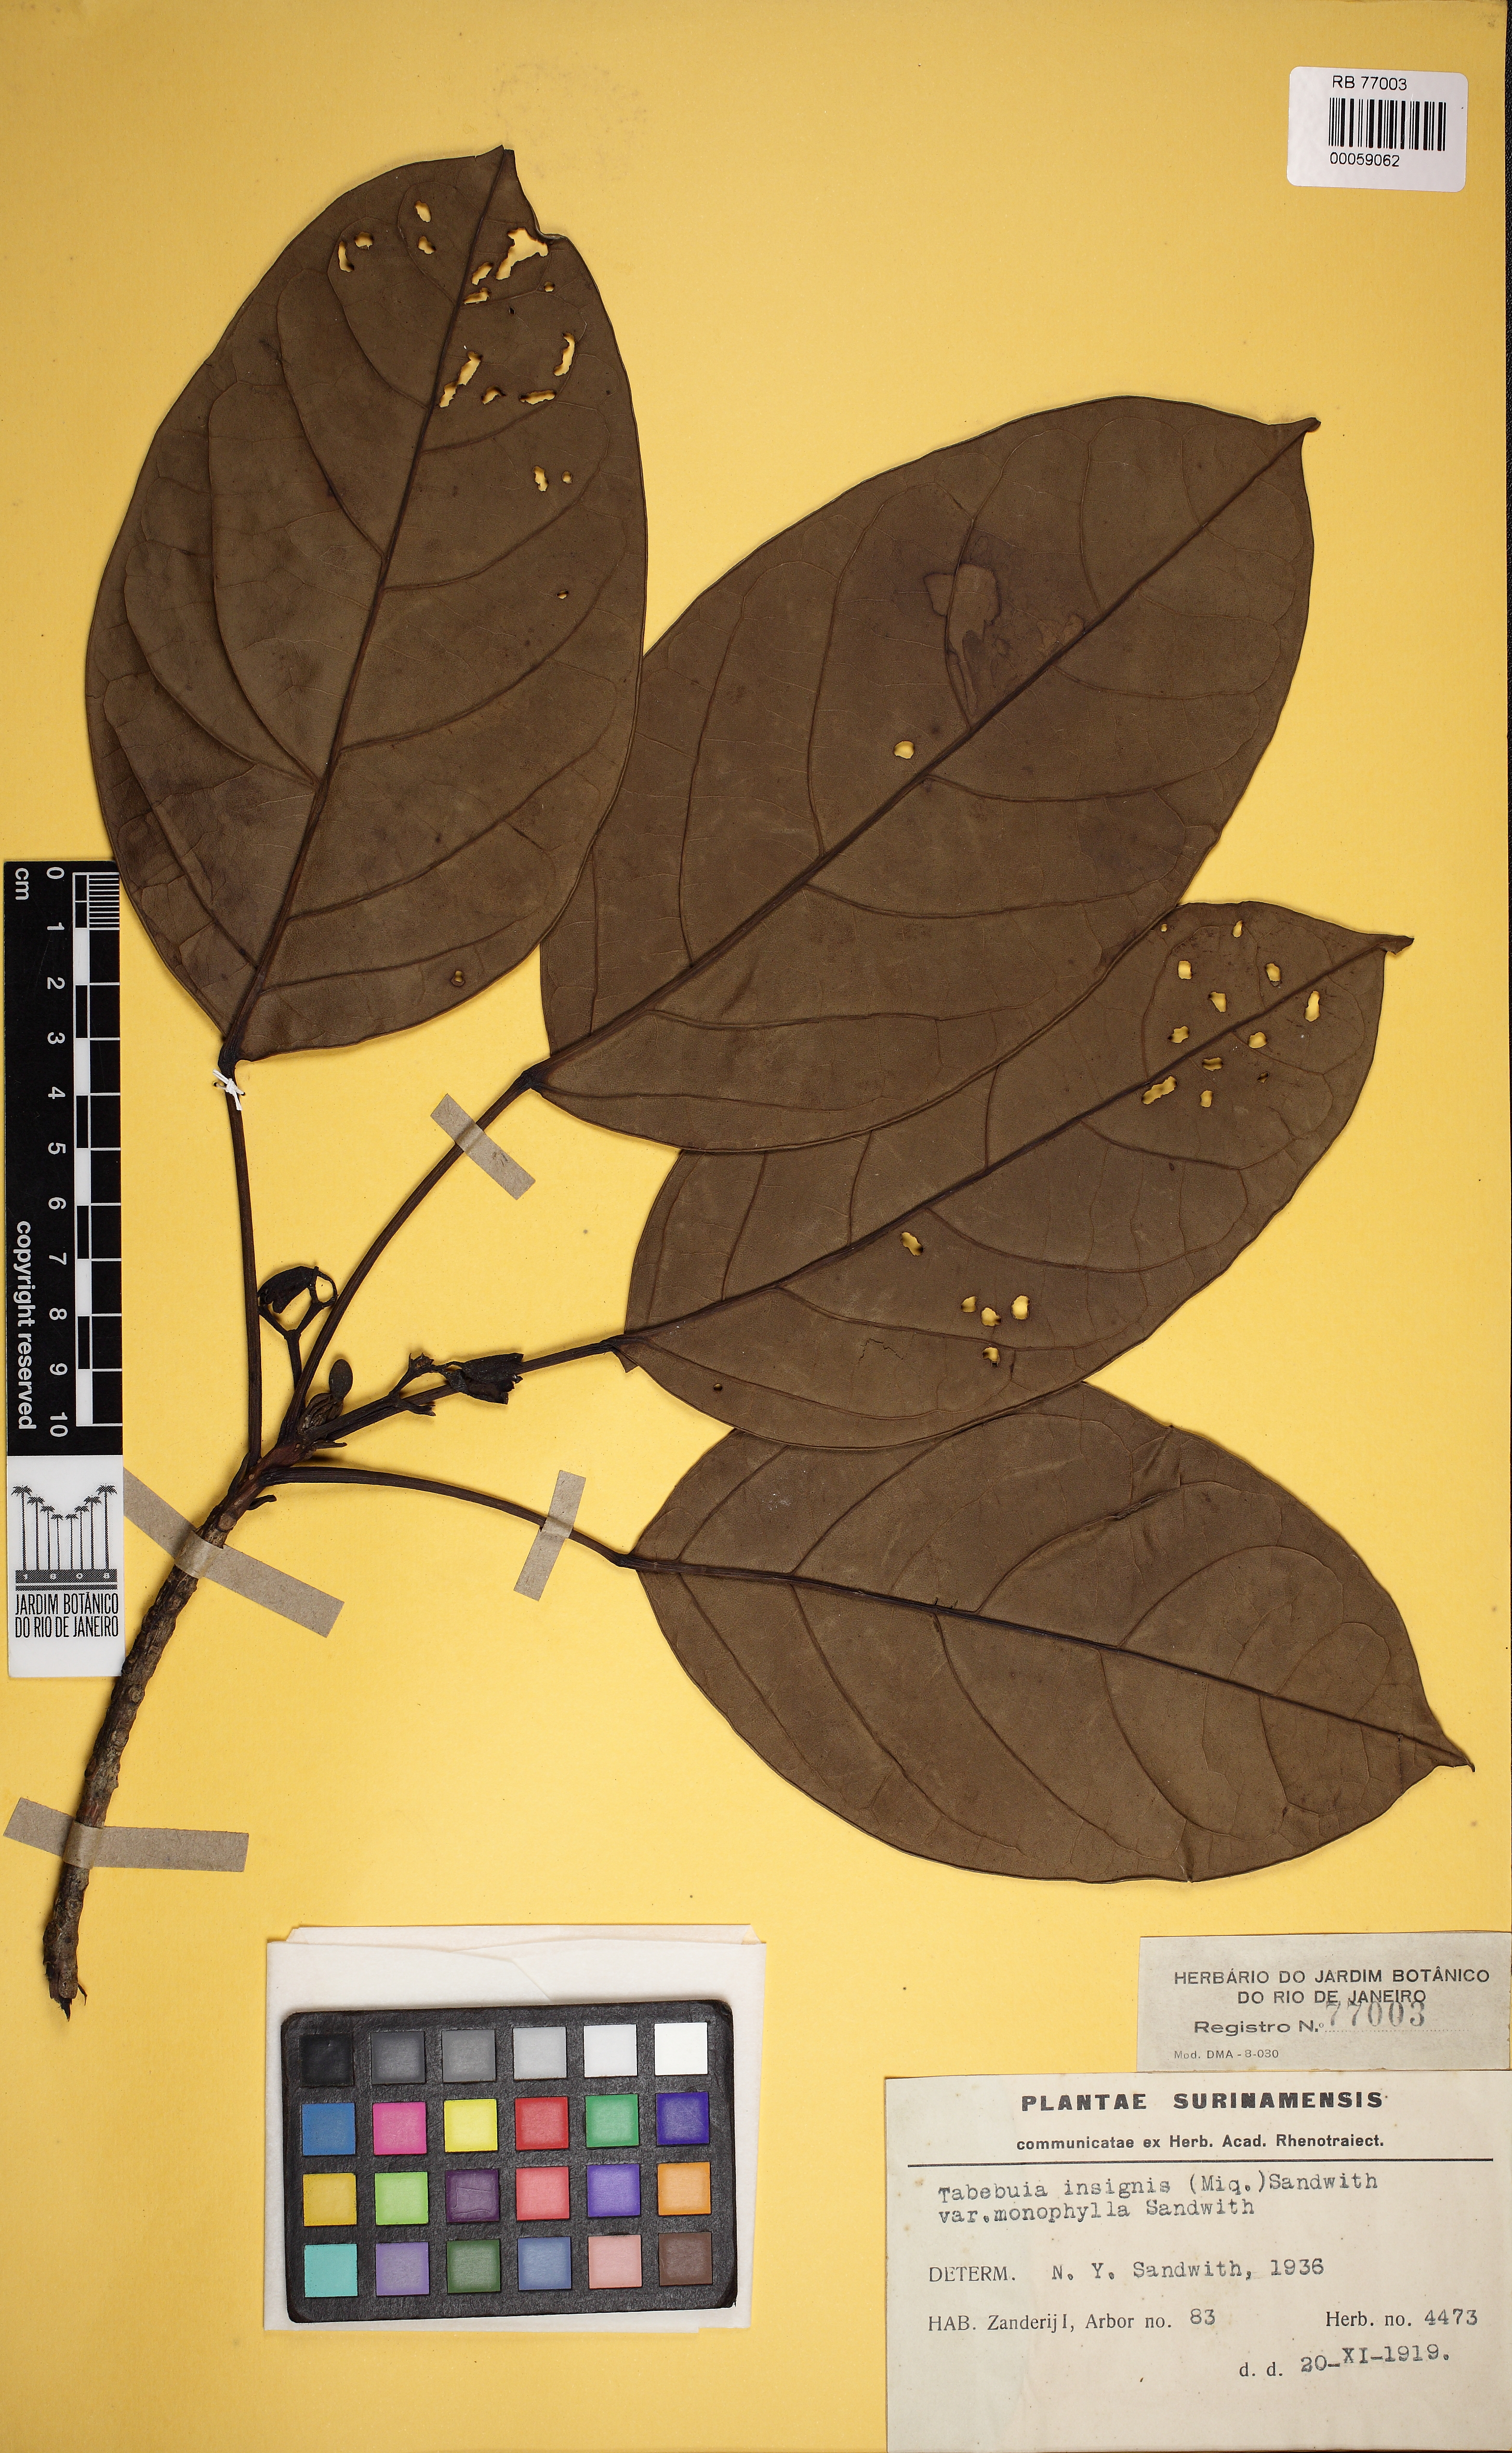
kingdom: Plantae
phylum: Tracheophyta
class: Magnoliopsida
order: Lamiales
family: Bignoniaceae
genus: Tabebuia
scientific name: Tabebuia insignis
